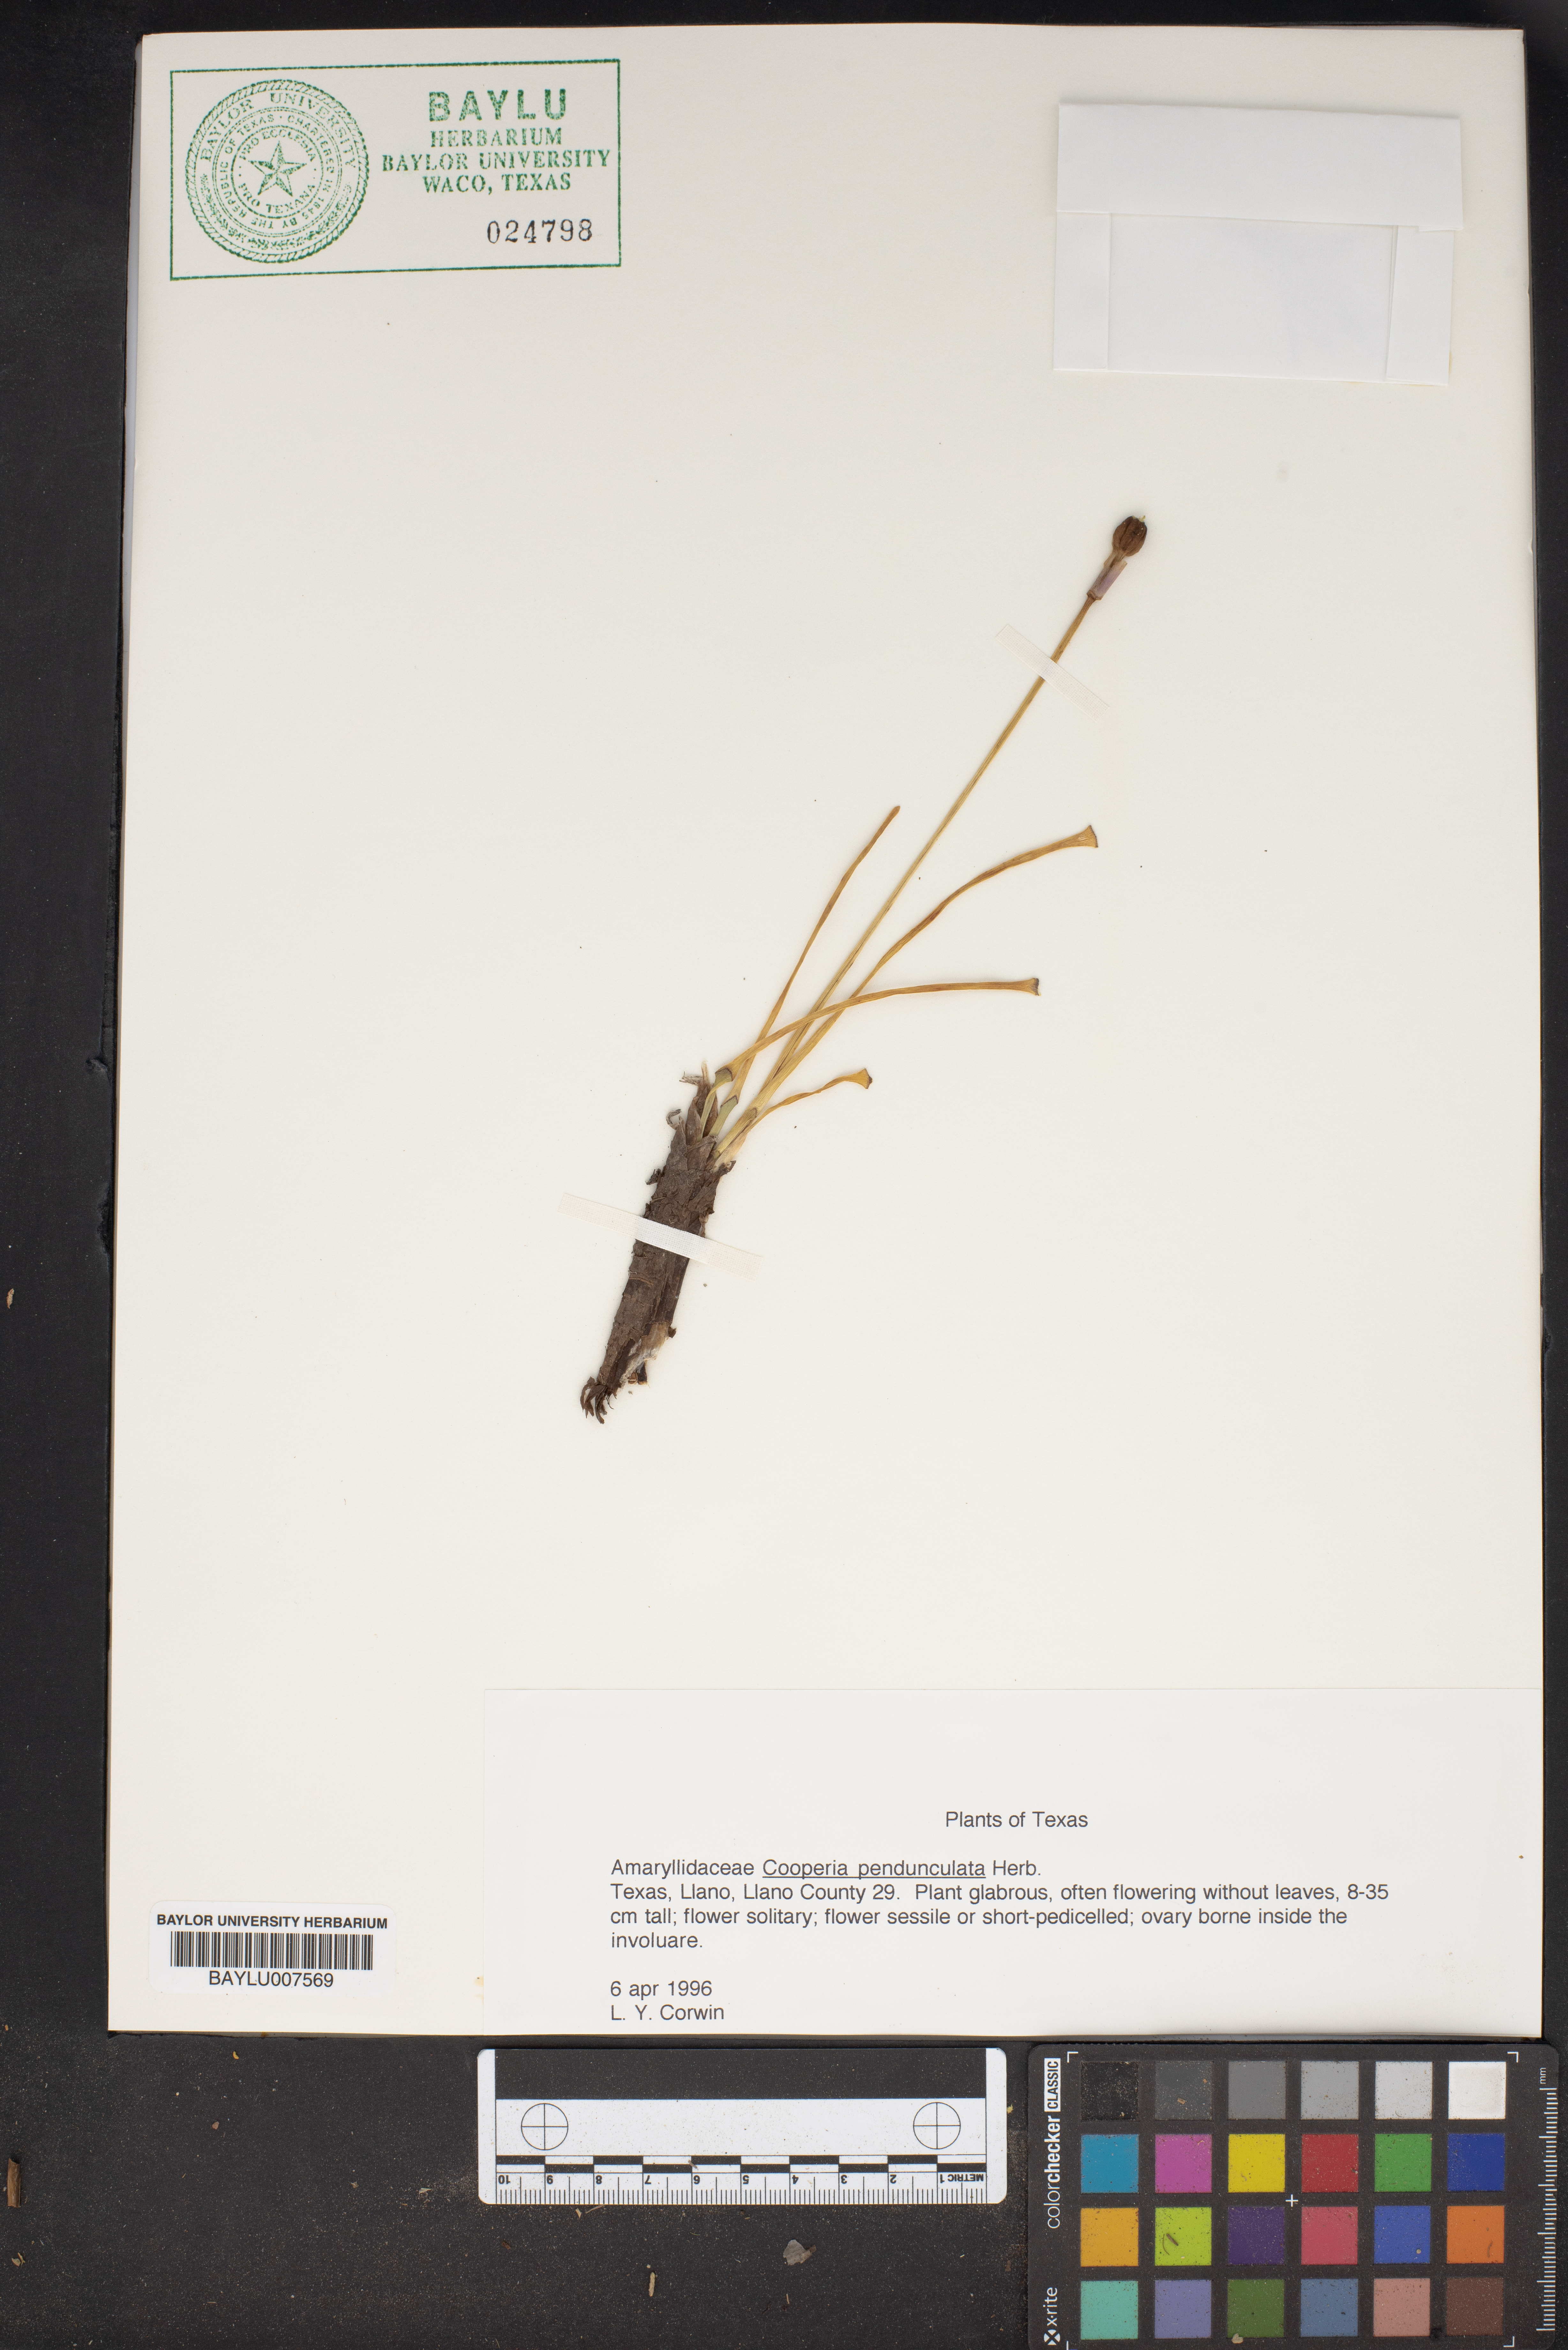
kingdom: Plantae
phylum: Tracheophyta
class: Liliopsida
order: Asparagales
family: Amaryllidaceae
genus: Zephyranthes
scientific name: Zephyranthes Cooperia spec
